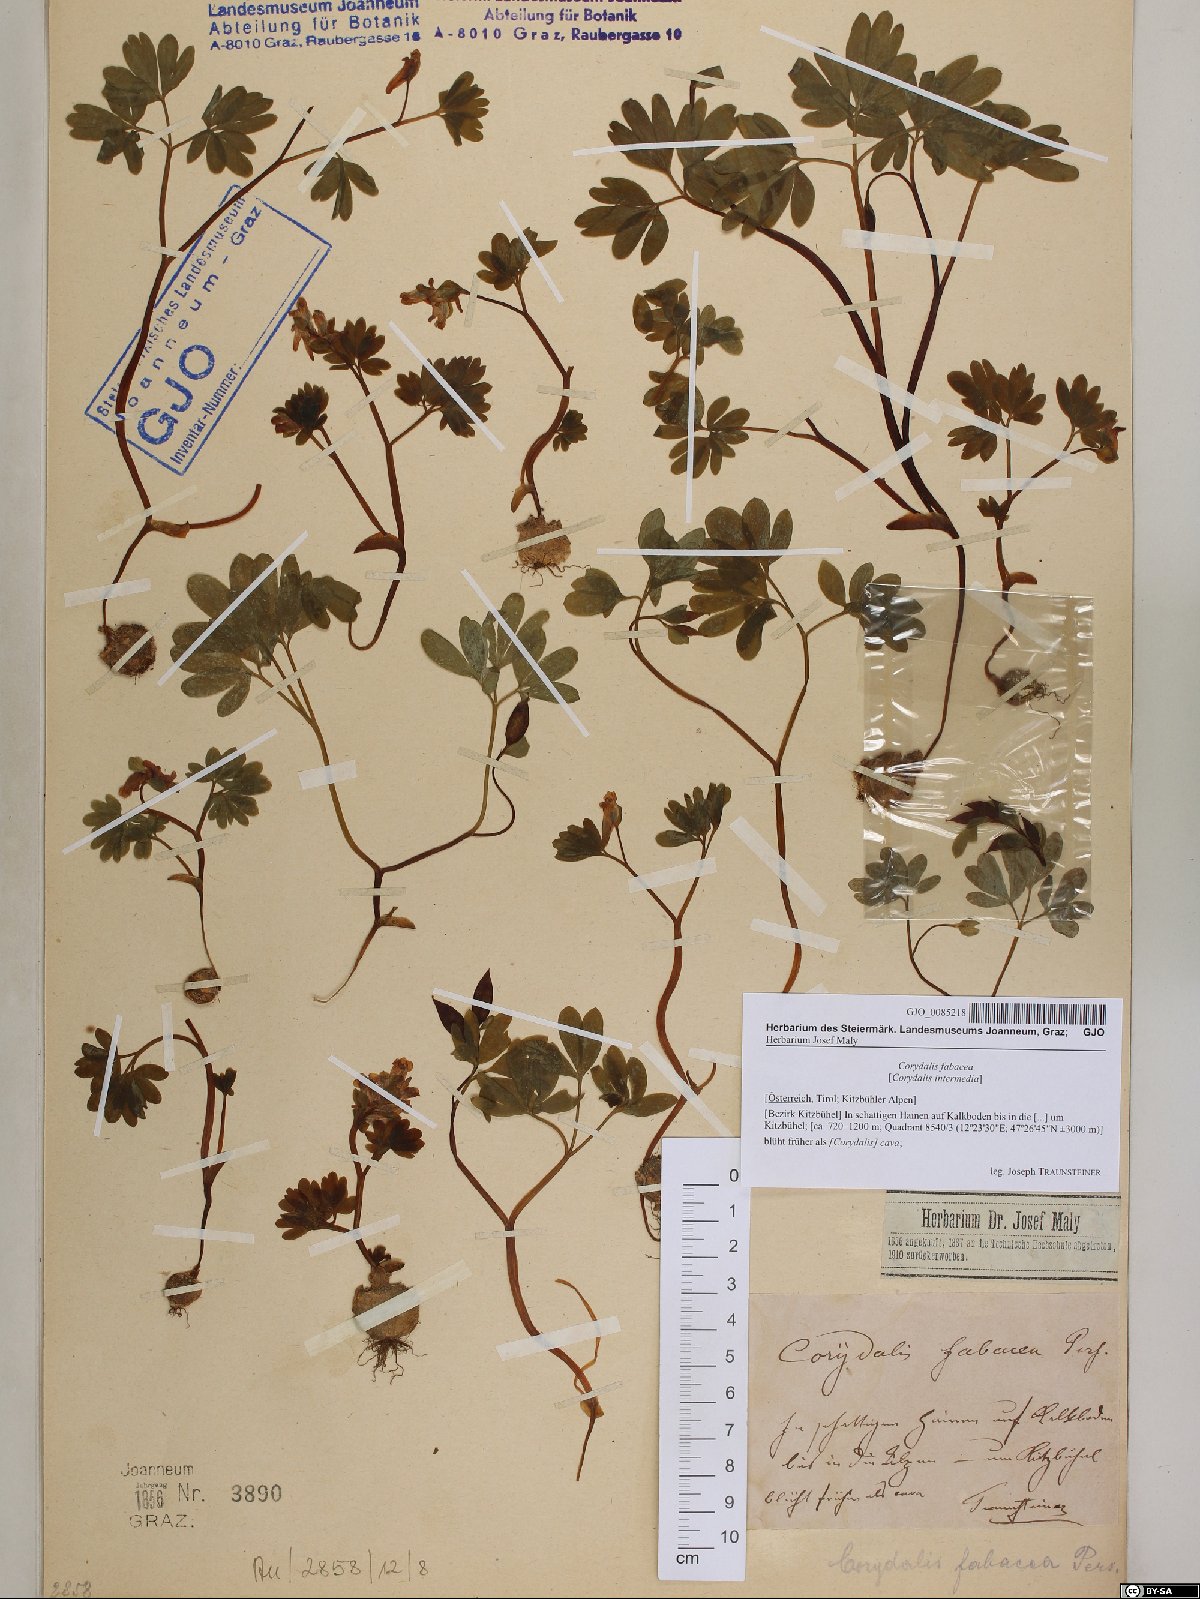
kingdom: Plantae
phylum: Tracheophyta
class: Magnoliopsida
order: Ranunculales
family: Papaveraceae
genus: Corydalis
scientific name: Corydalis intermedia
